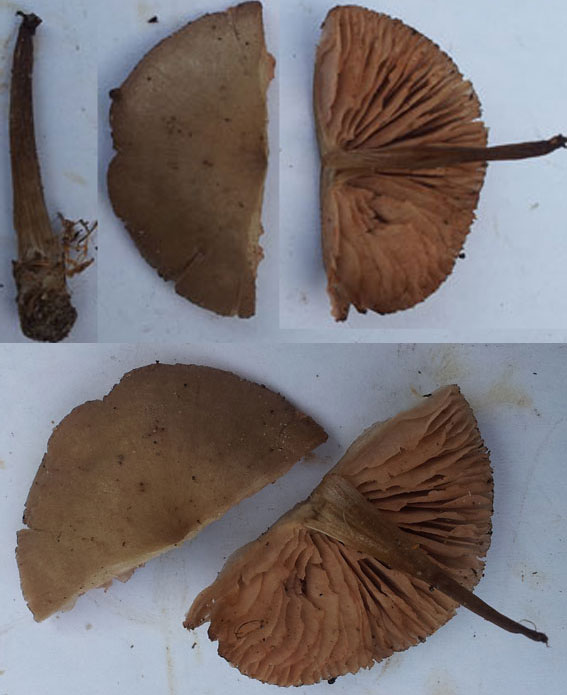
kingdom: Fungi
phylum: Basidiomycota
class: Agaricomycetes
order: Agaricales
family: Entolomataceae
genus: Entoloma
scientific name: Entoloma conferendum
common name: stjernesporet rødblad
